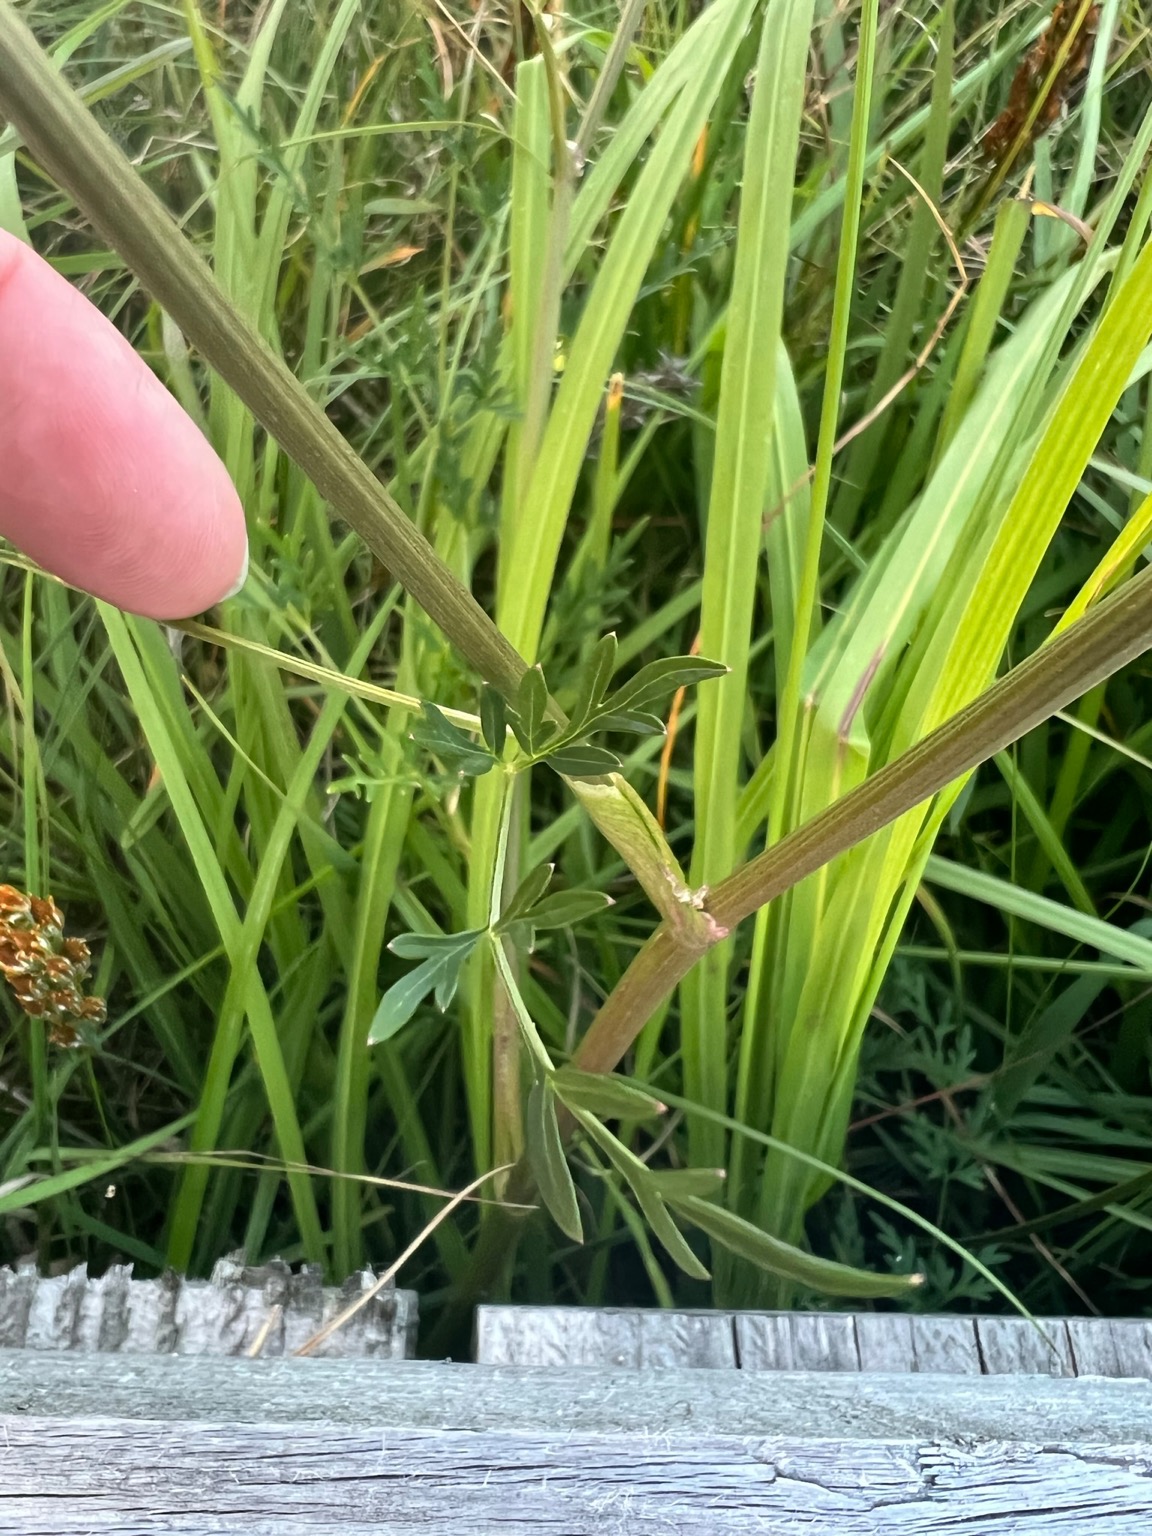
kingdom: Plantae
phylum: Tracheophyta
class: Magnoliopsida
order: Apiales
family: Apiaceae
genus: Thysselinum
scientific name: Thysselinum palustre
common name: Kær-svovlrod
